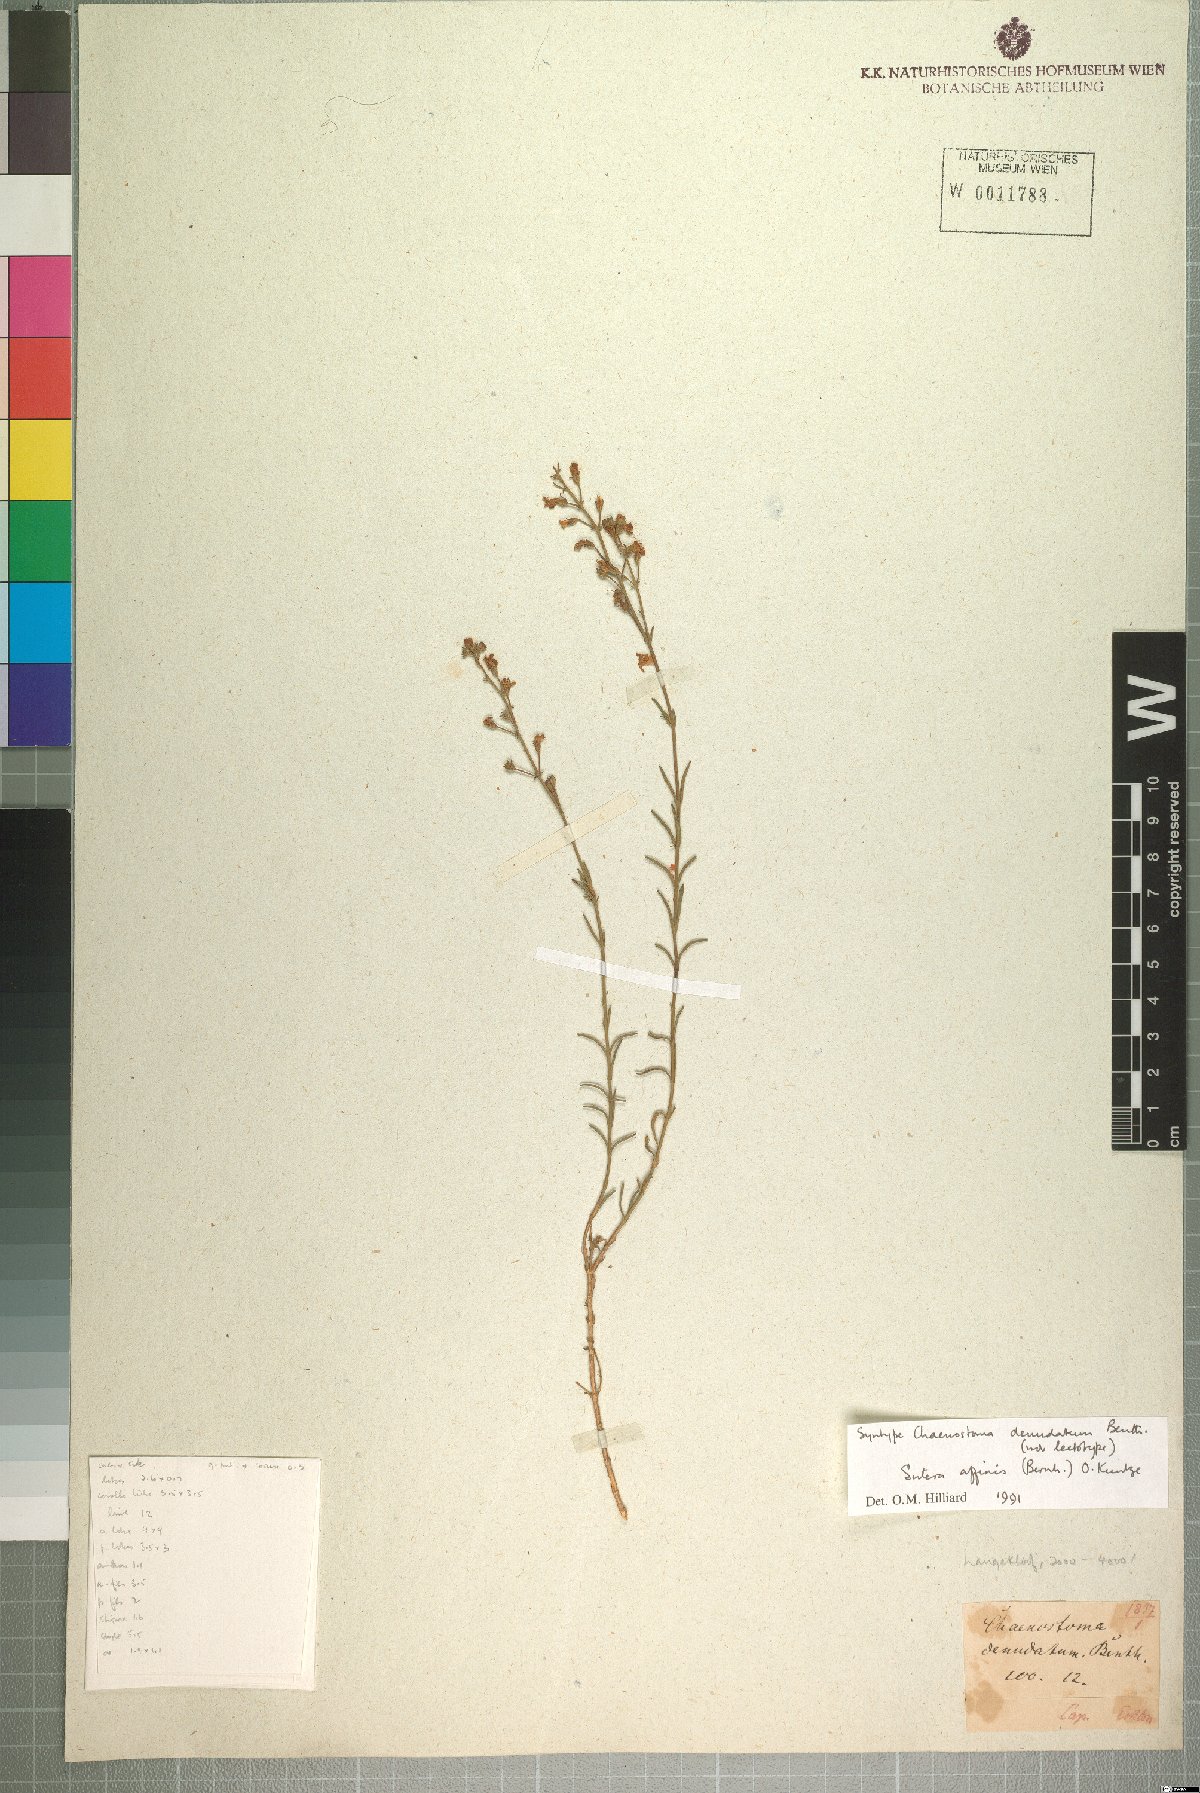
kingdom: Plantae
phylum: Tracheophyta
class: Magnoliopsida
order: Lamiales
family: Scrophulariaceae
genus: Chaenostoma
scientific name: Chaenostoma denudatum
